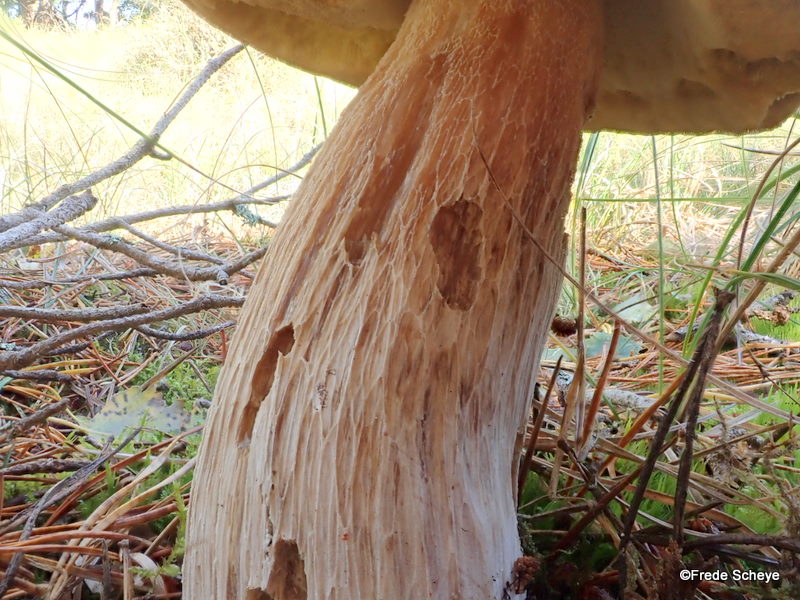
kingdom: Fungi
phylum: Basidiomycota
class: Agaricomycetes
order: Boletales
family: Boletaceae
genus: Boletus
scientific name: Boletus edulis
